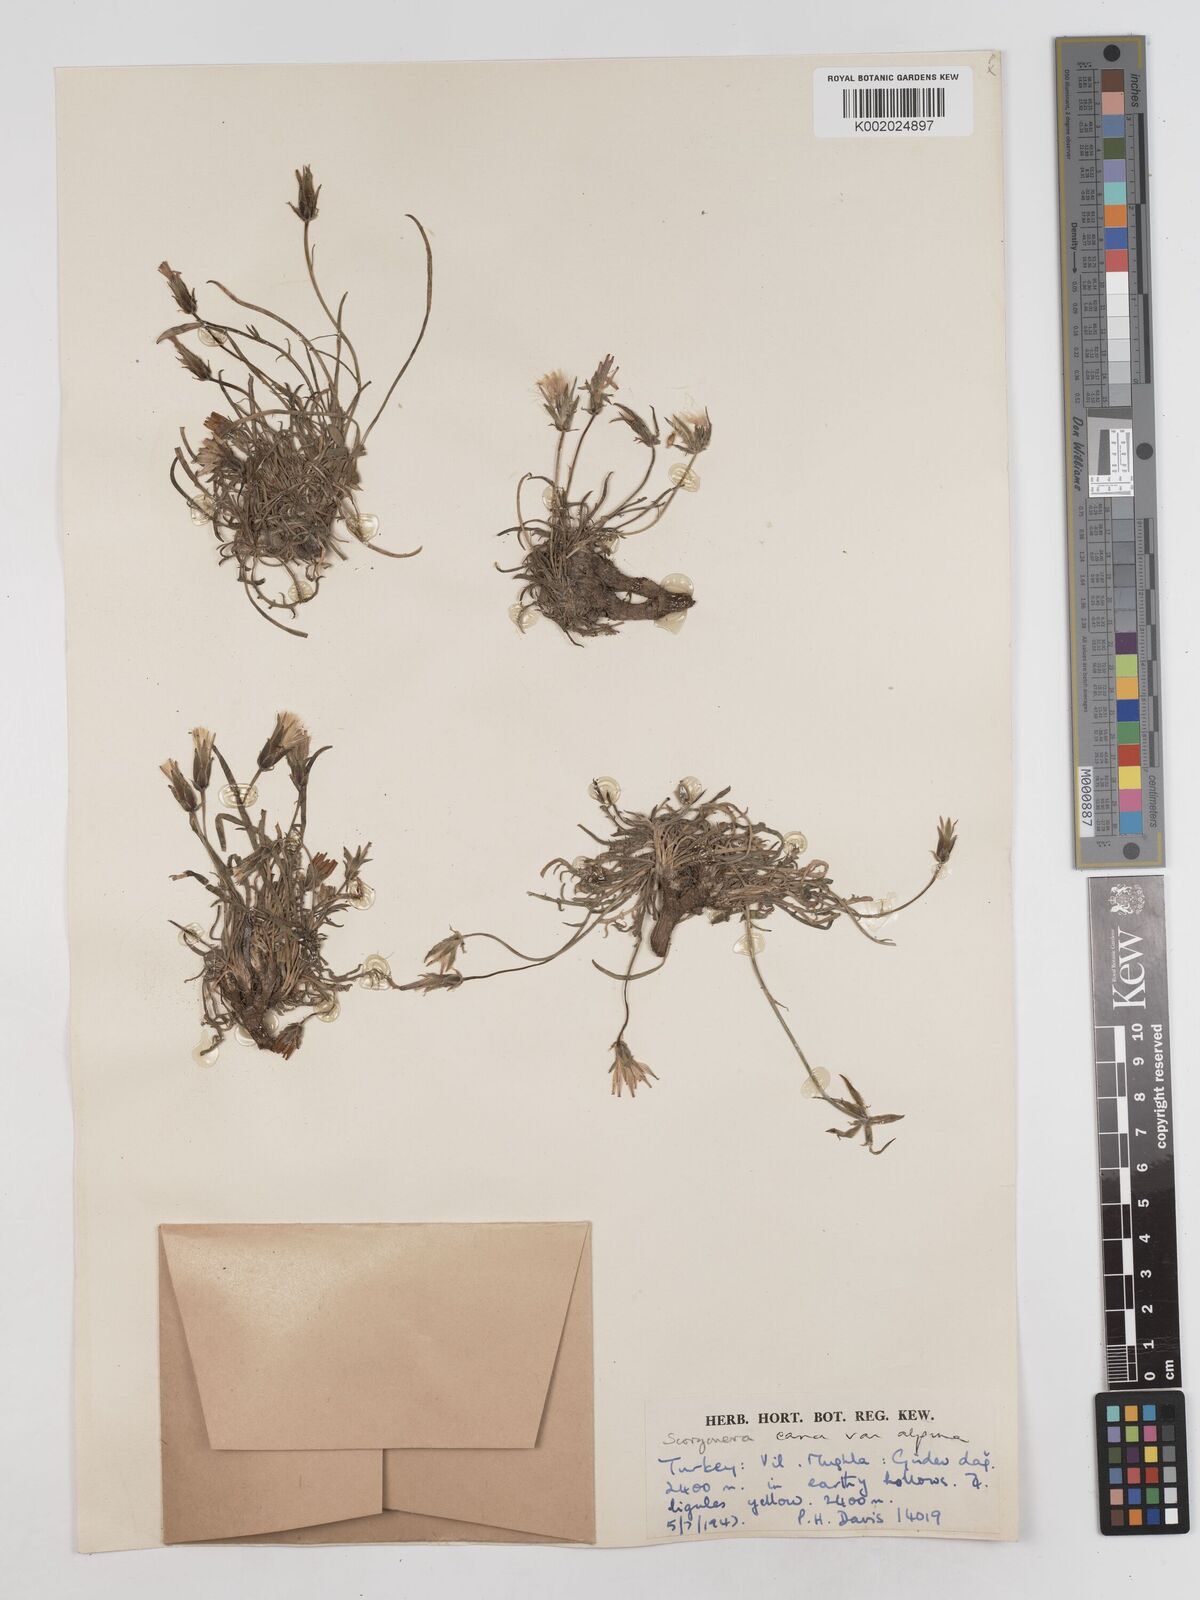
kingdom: Plantae
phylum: Tracheophyta
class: Magnoliopsida
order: Asterales
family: Asteraceae
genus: Scorzonera
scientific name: Scorzonera alpigena
